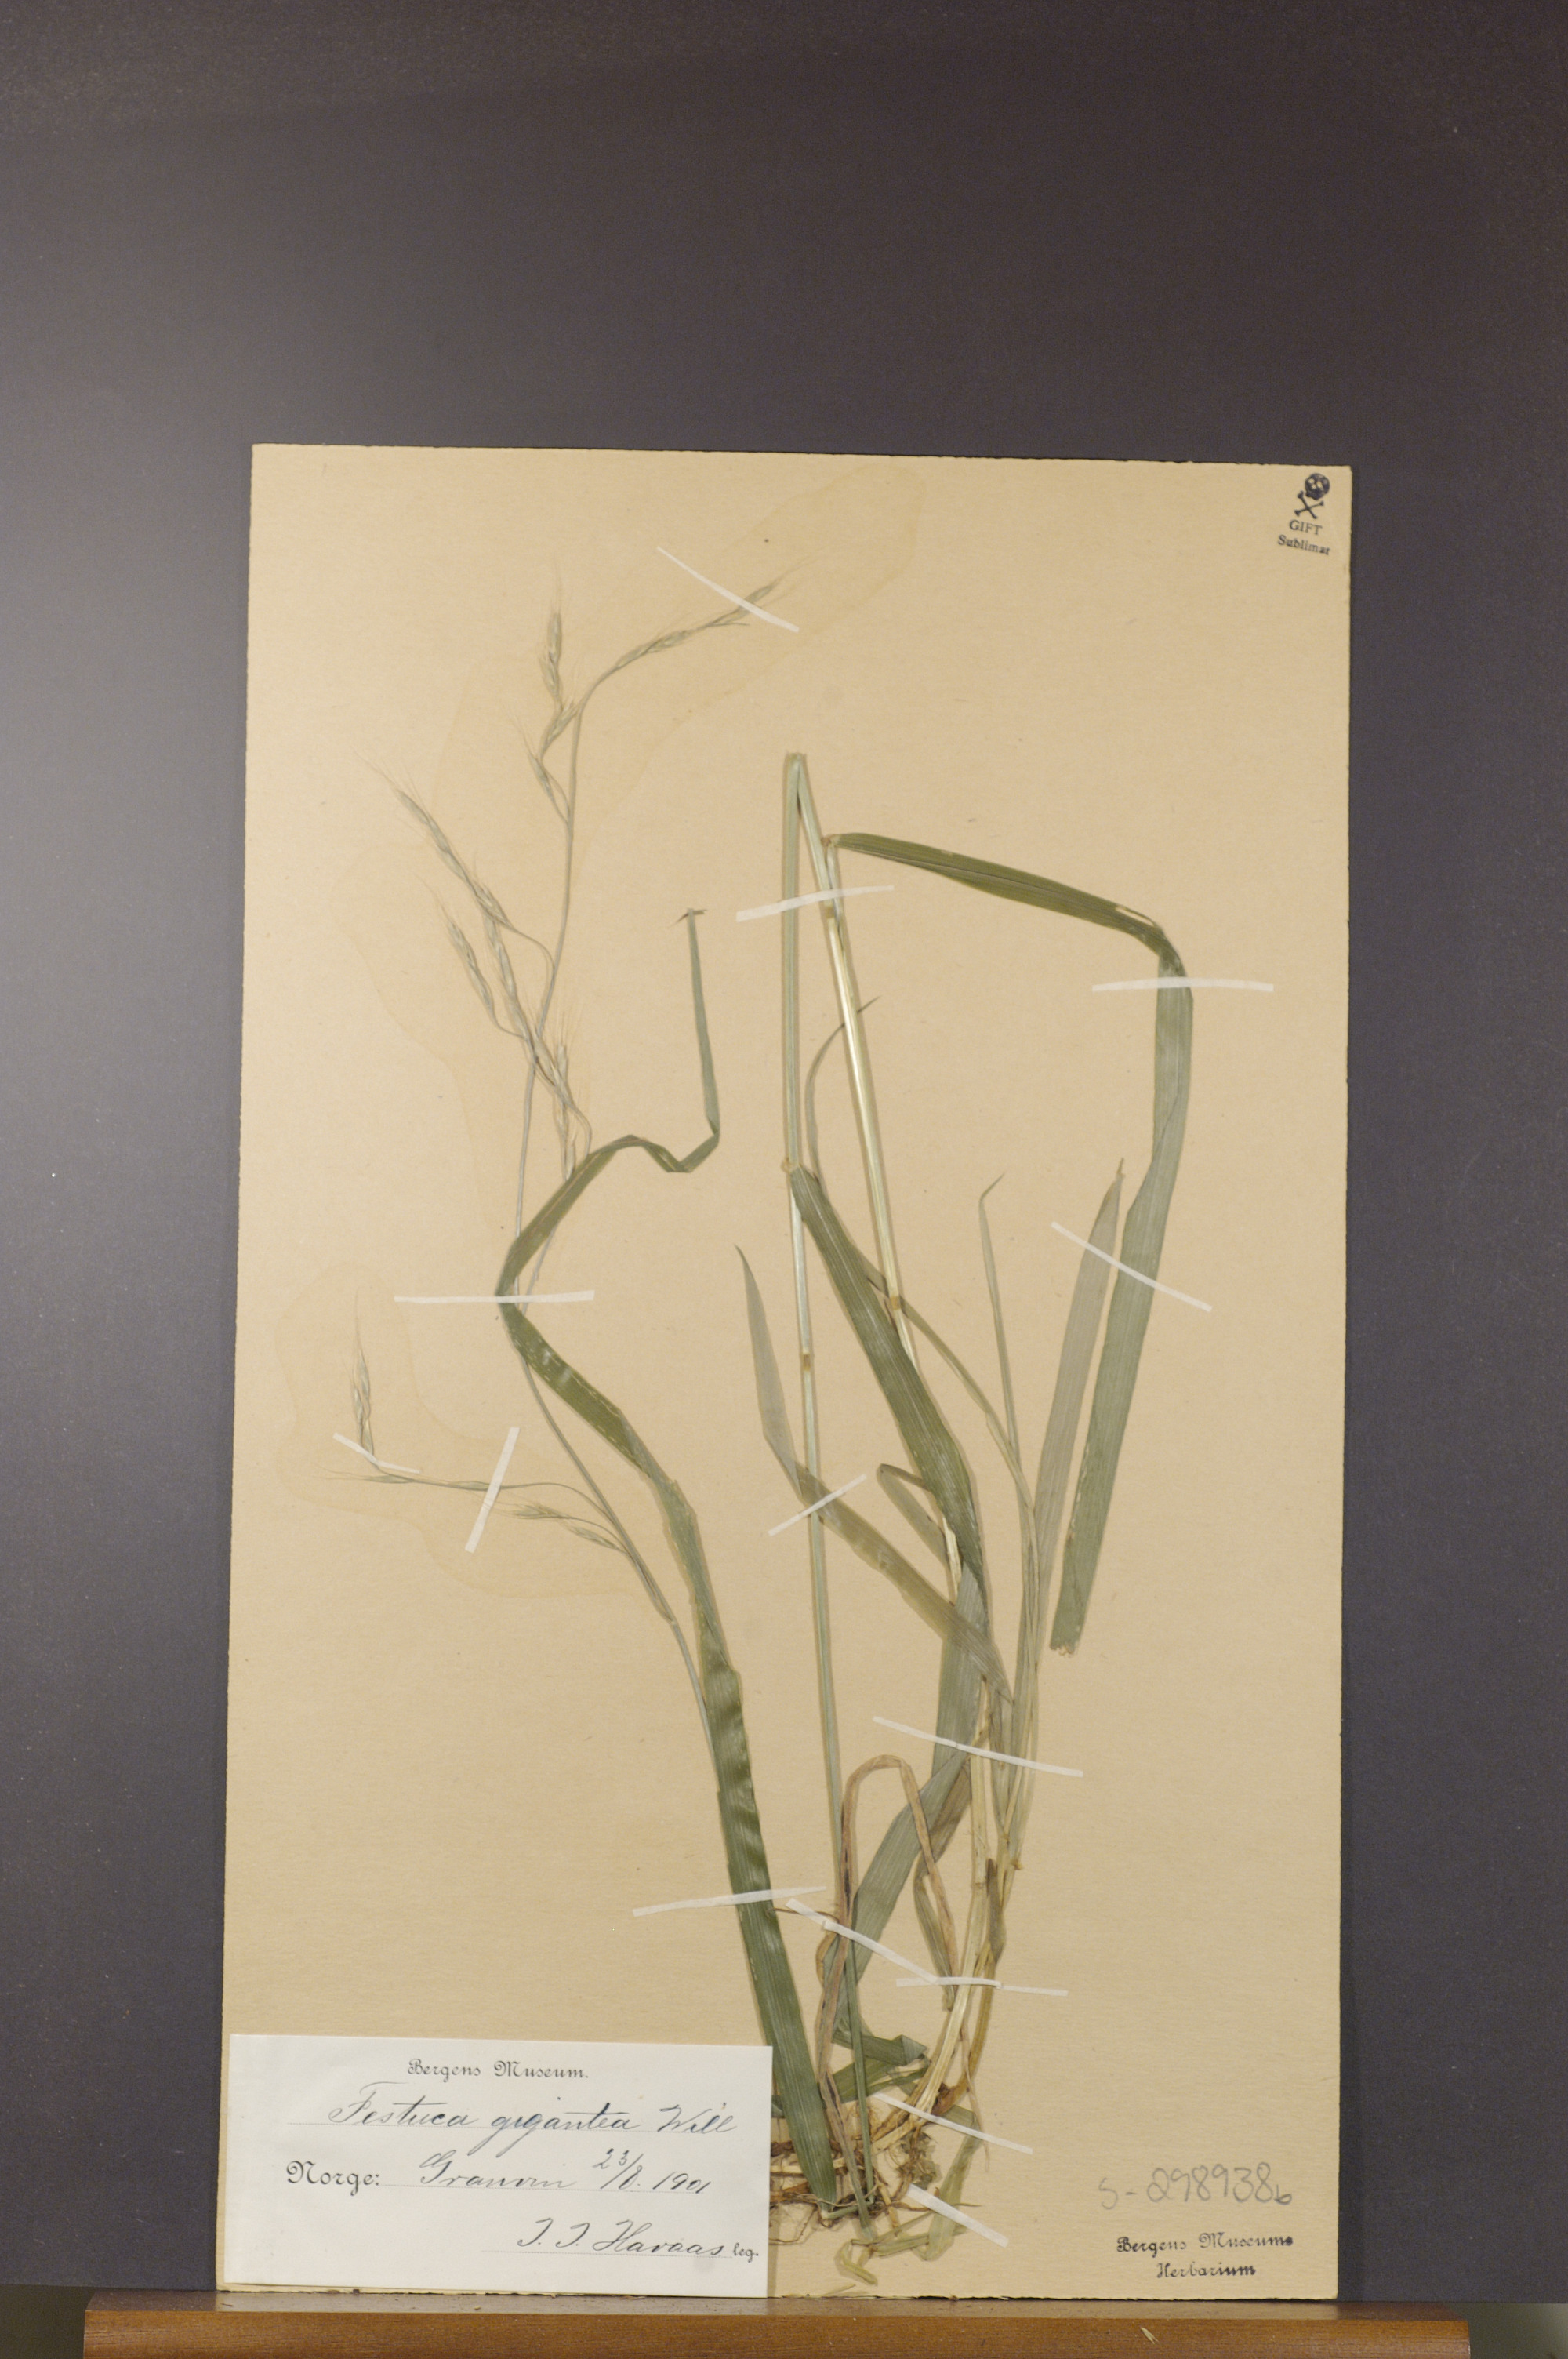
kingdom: Plantae
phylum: Tracheophyta
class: Liliopsida
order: Poales
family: Poaceae
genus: Lolium
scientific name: Lolium giganteum
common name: Giant fescue
